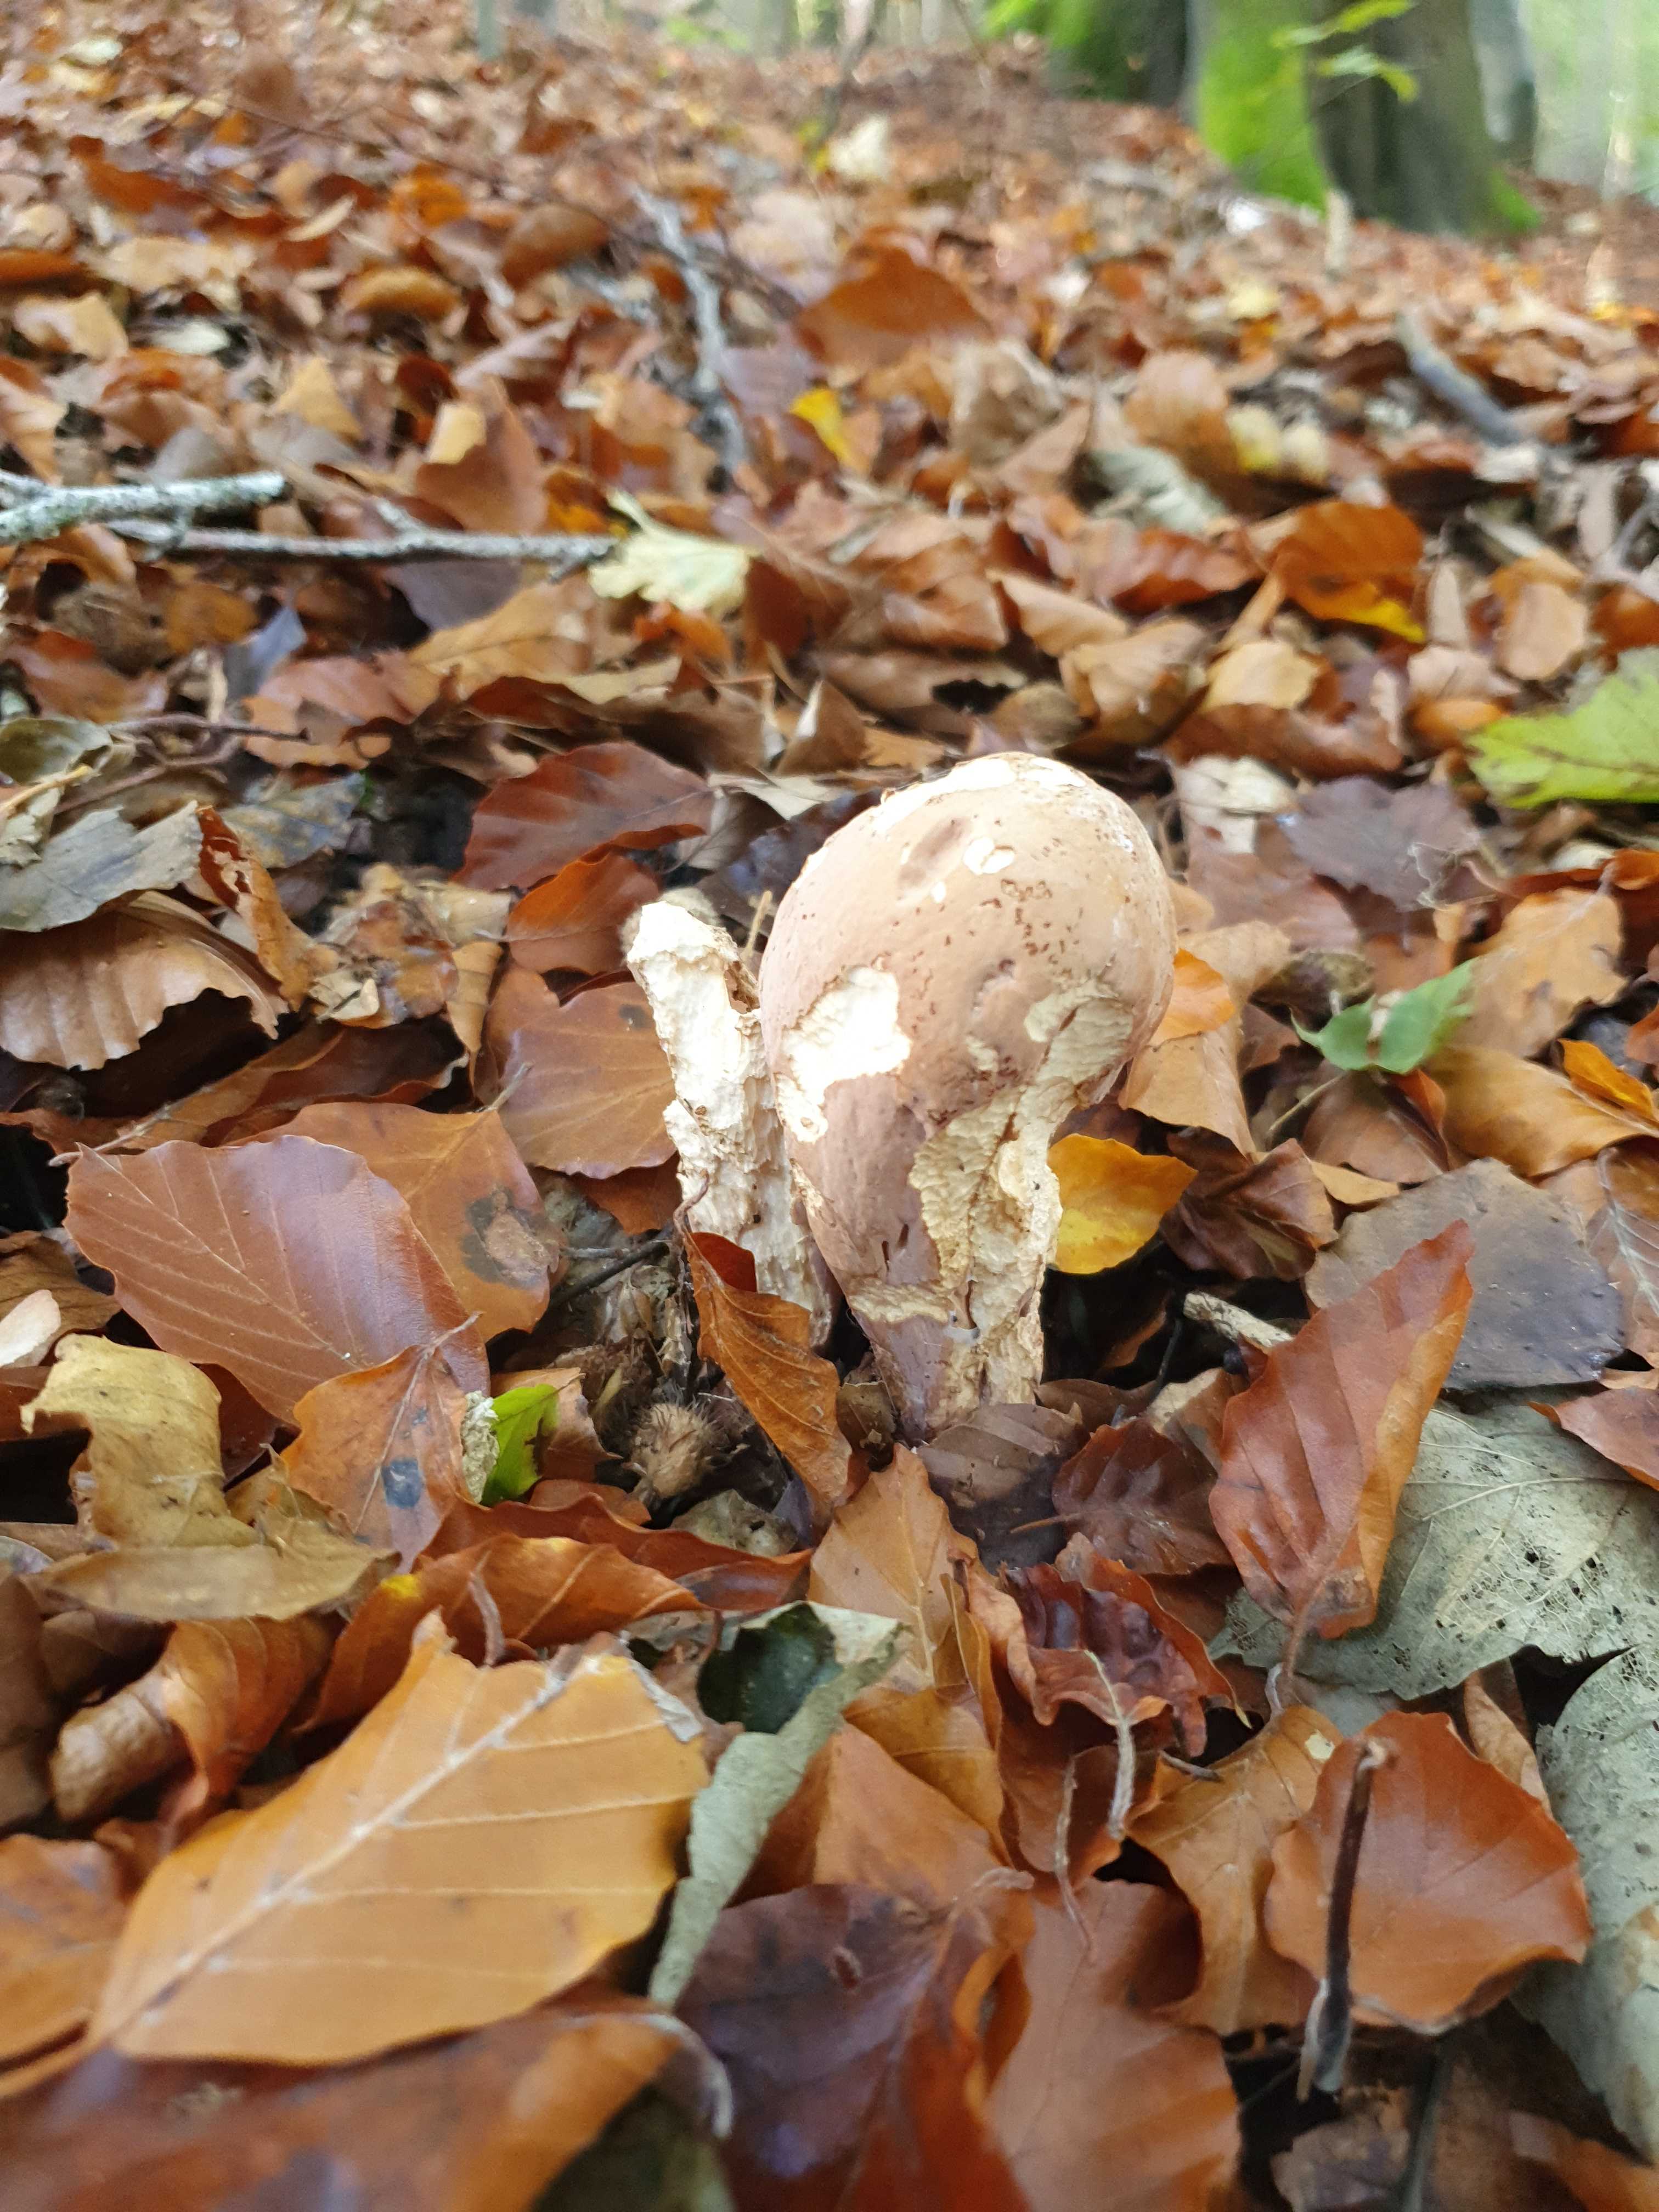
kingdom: Fungi
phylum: Basidiomycota
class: Agaricomycetes
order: Gomphales
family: Clavariadelphaceae
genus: Clavariadelphus
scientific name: Clavariadelphus pistillaris
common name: herkules-kæmpekølle
